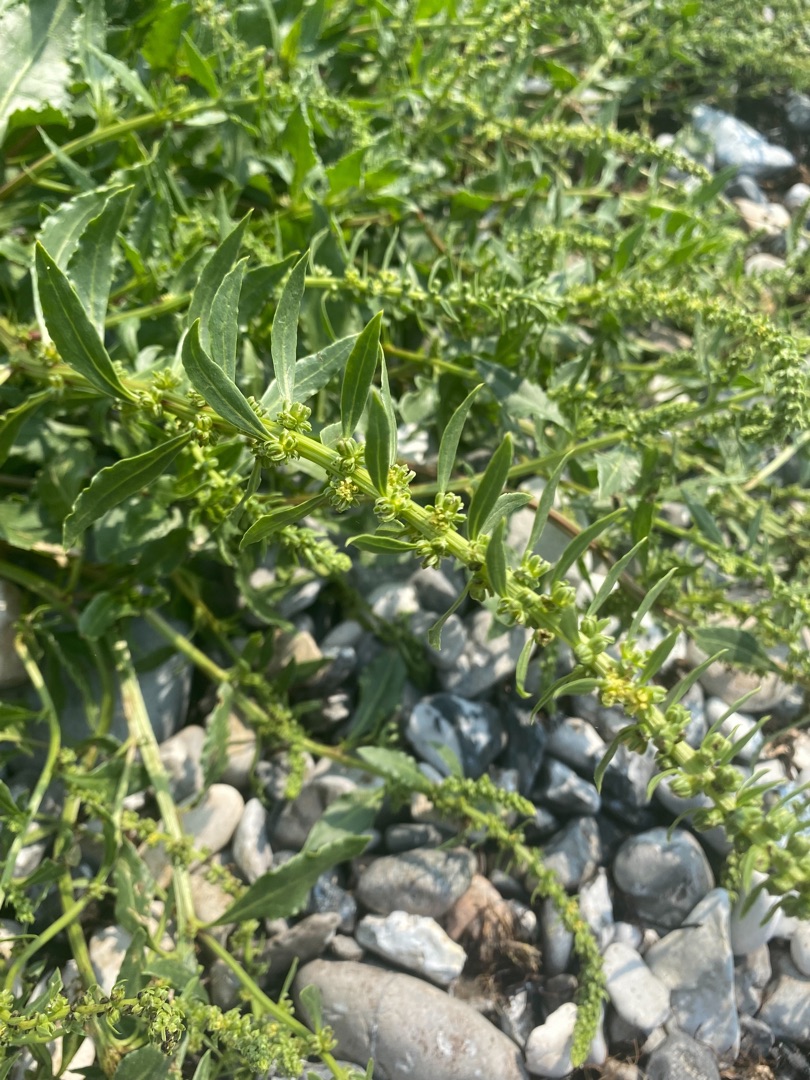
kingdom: Plantae
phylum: Tracheophyta
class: Magnoliopsida
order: Caryophyllales
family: Amaranthaceae
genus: Beta
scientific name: Beta maritima
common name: Strand-bede
